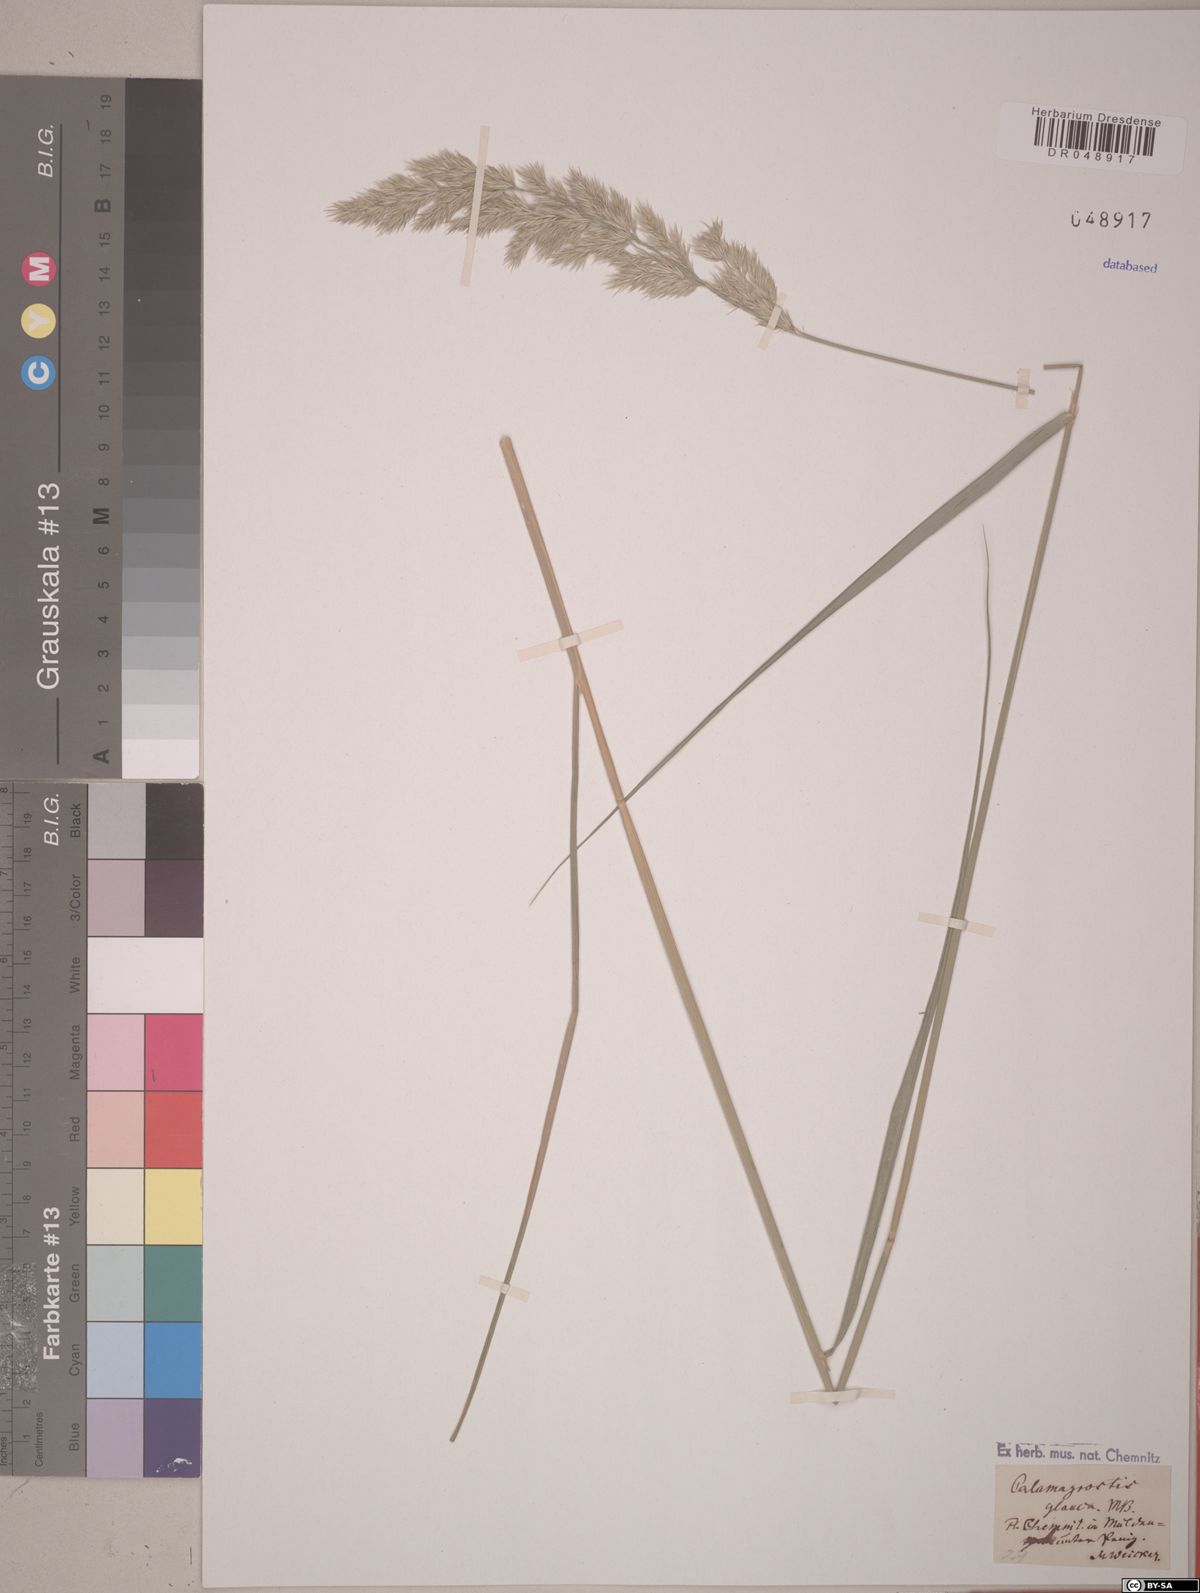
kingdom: Plantae
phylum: Tracheophyta
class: Liliopsida
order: Poales
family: Poaceae
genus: Calamagrostis
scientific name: Calamagrostis pseudophragmites
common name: Coastal small-reed
